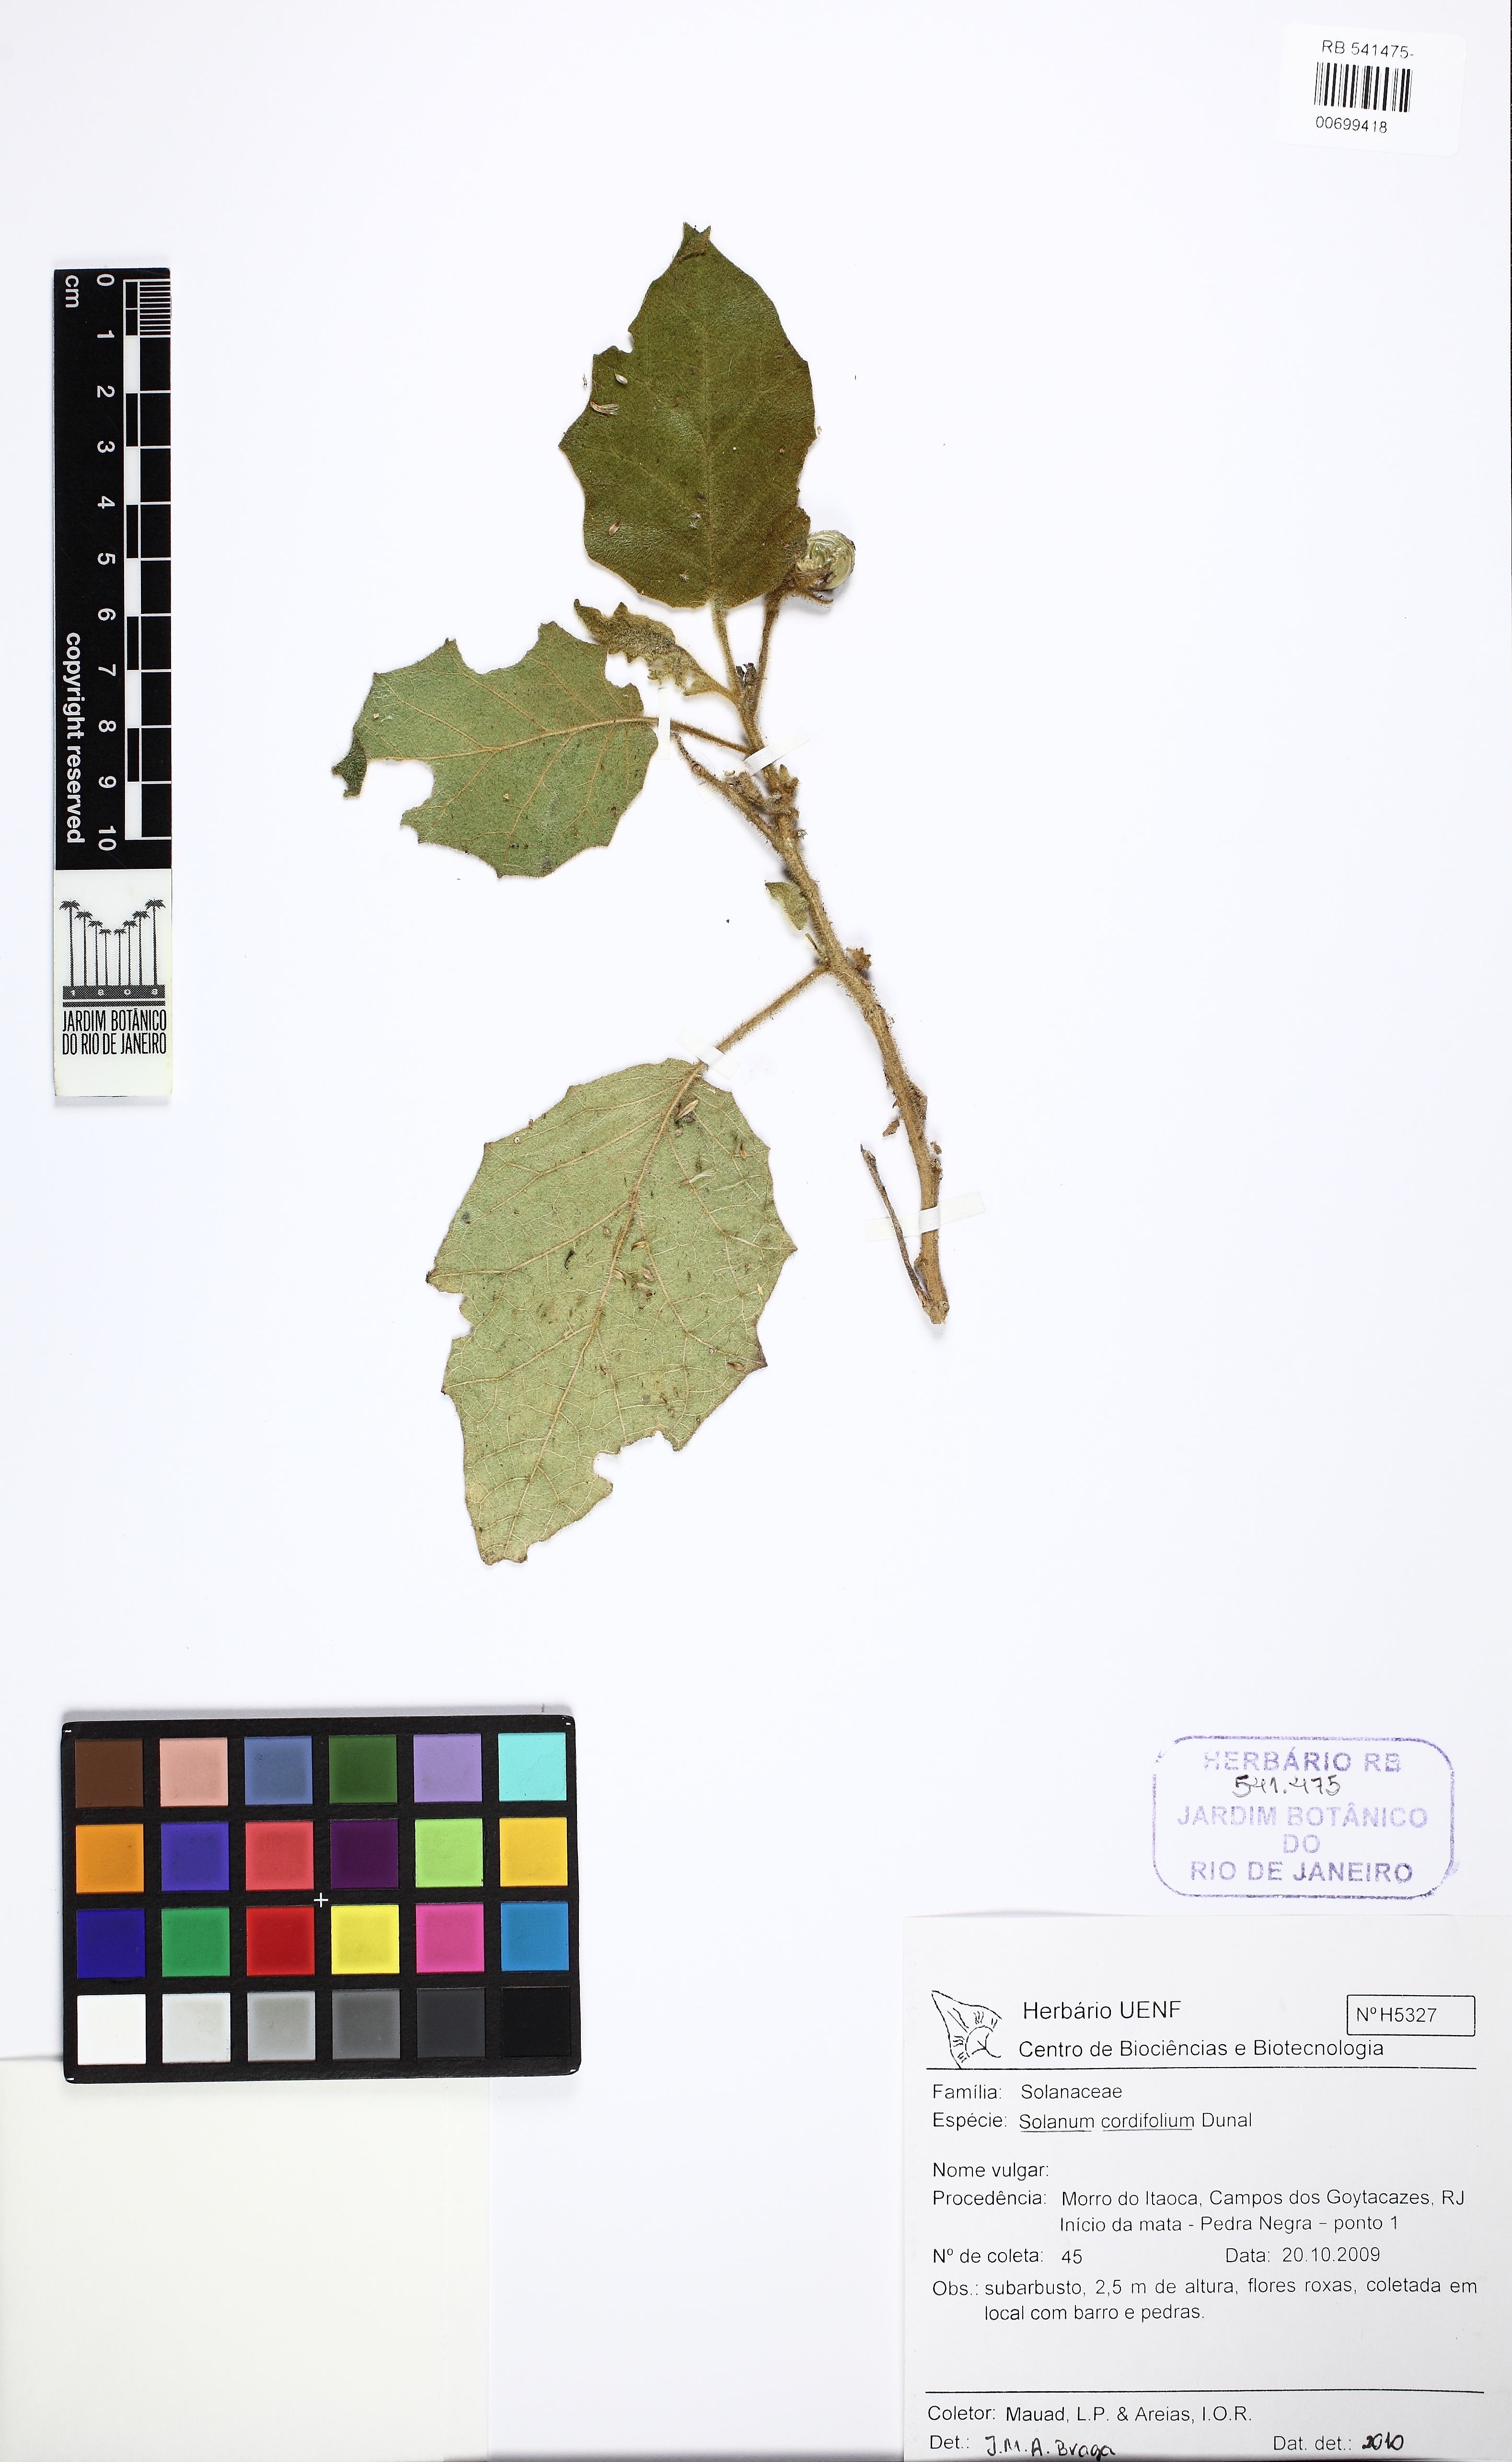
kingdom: Plantae
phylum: Tracheophyta
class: Magnoliopsida
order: Solanales
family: Solanaceae
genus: Solanum
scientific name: Solanum cordifolium
